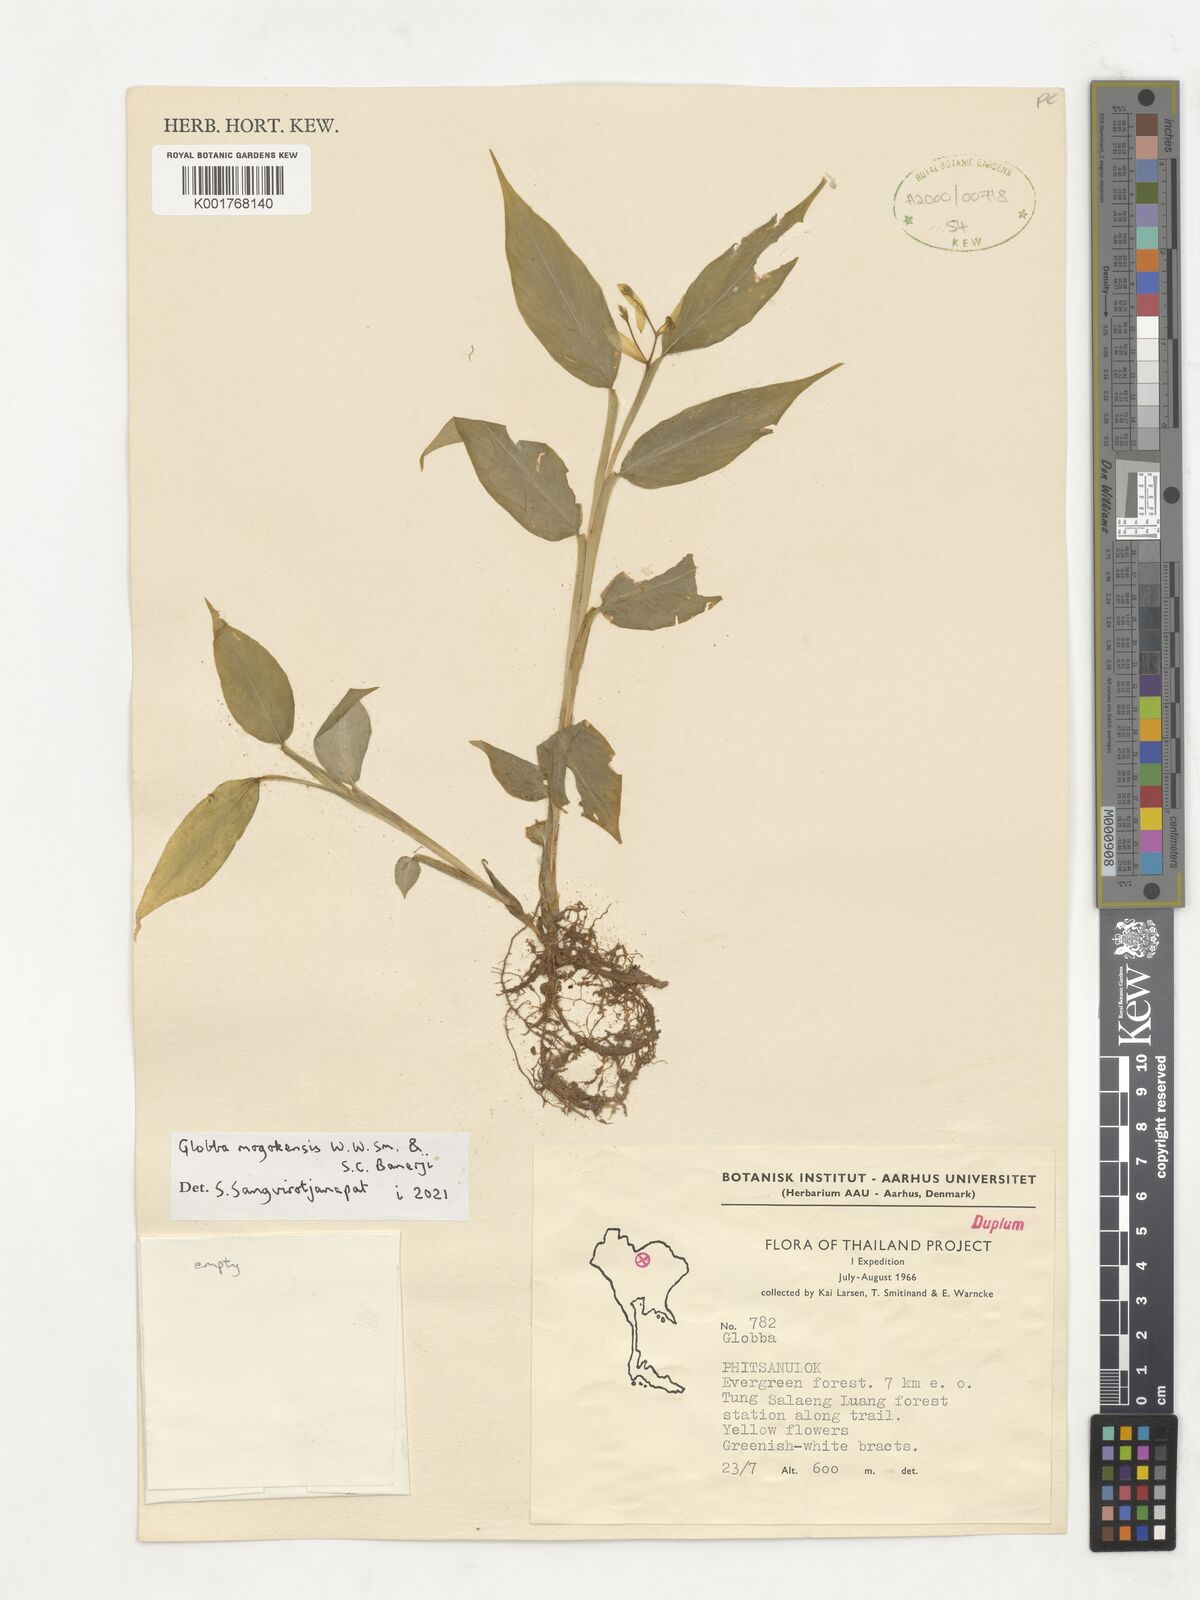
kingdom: Plantae
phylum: Tracheophyta
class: Liliopsida
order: Zingiberales
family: Zingiberaceae
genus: Globba
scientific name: Globba mogokensis
